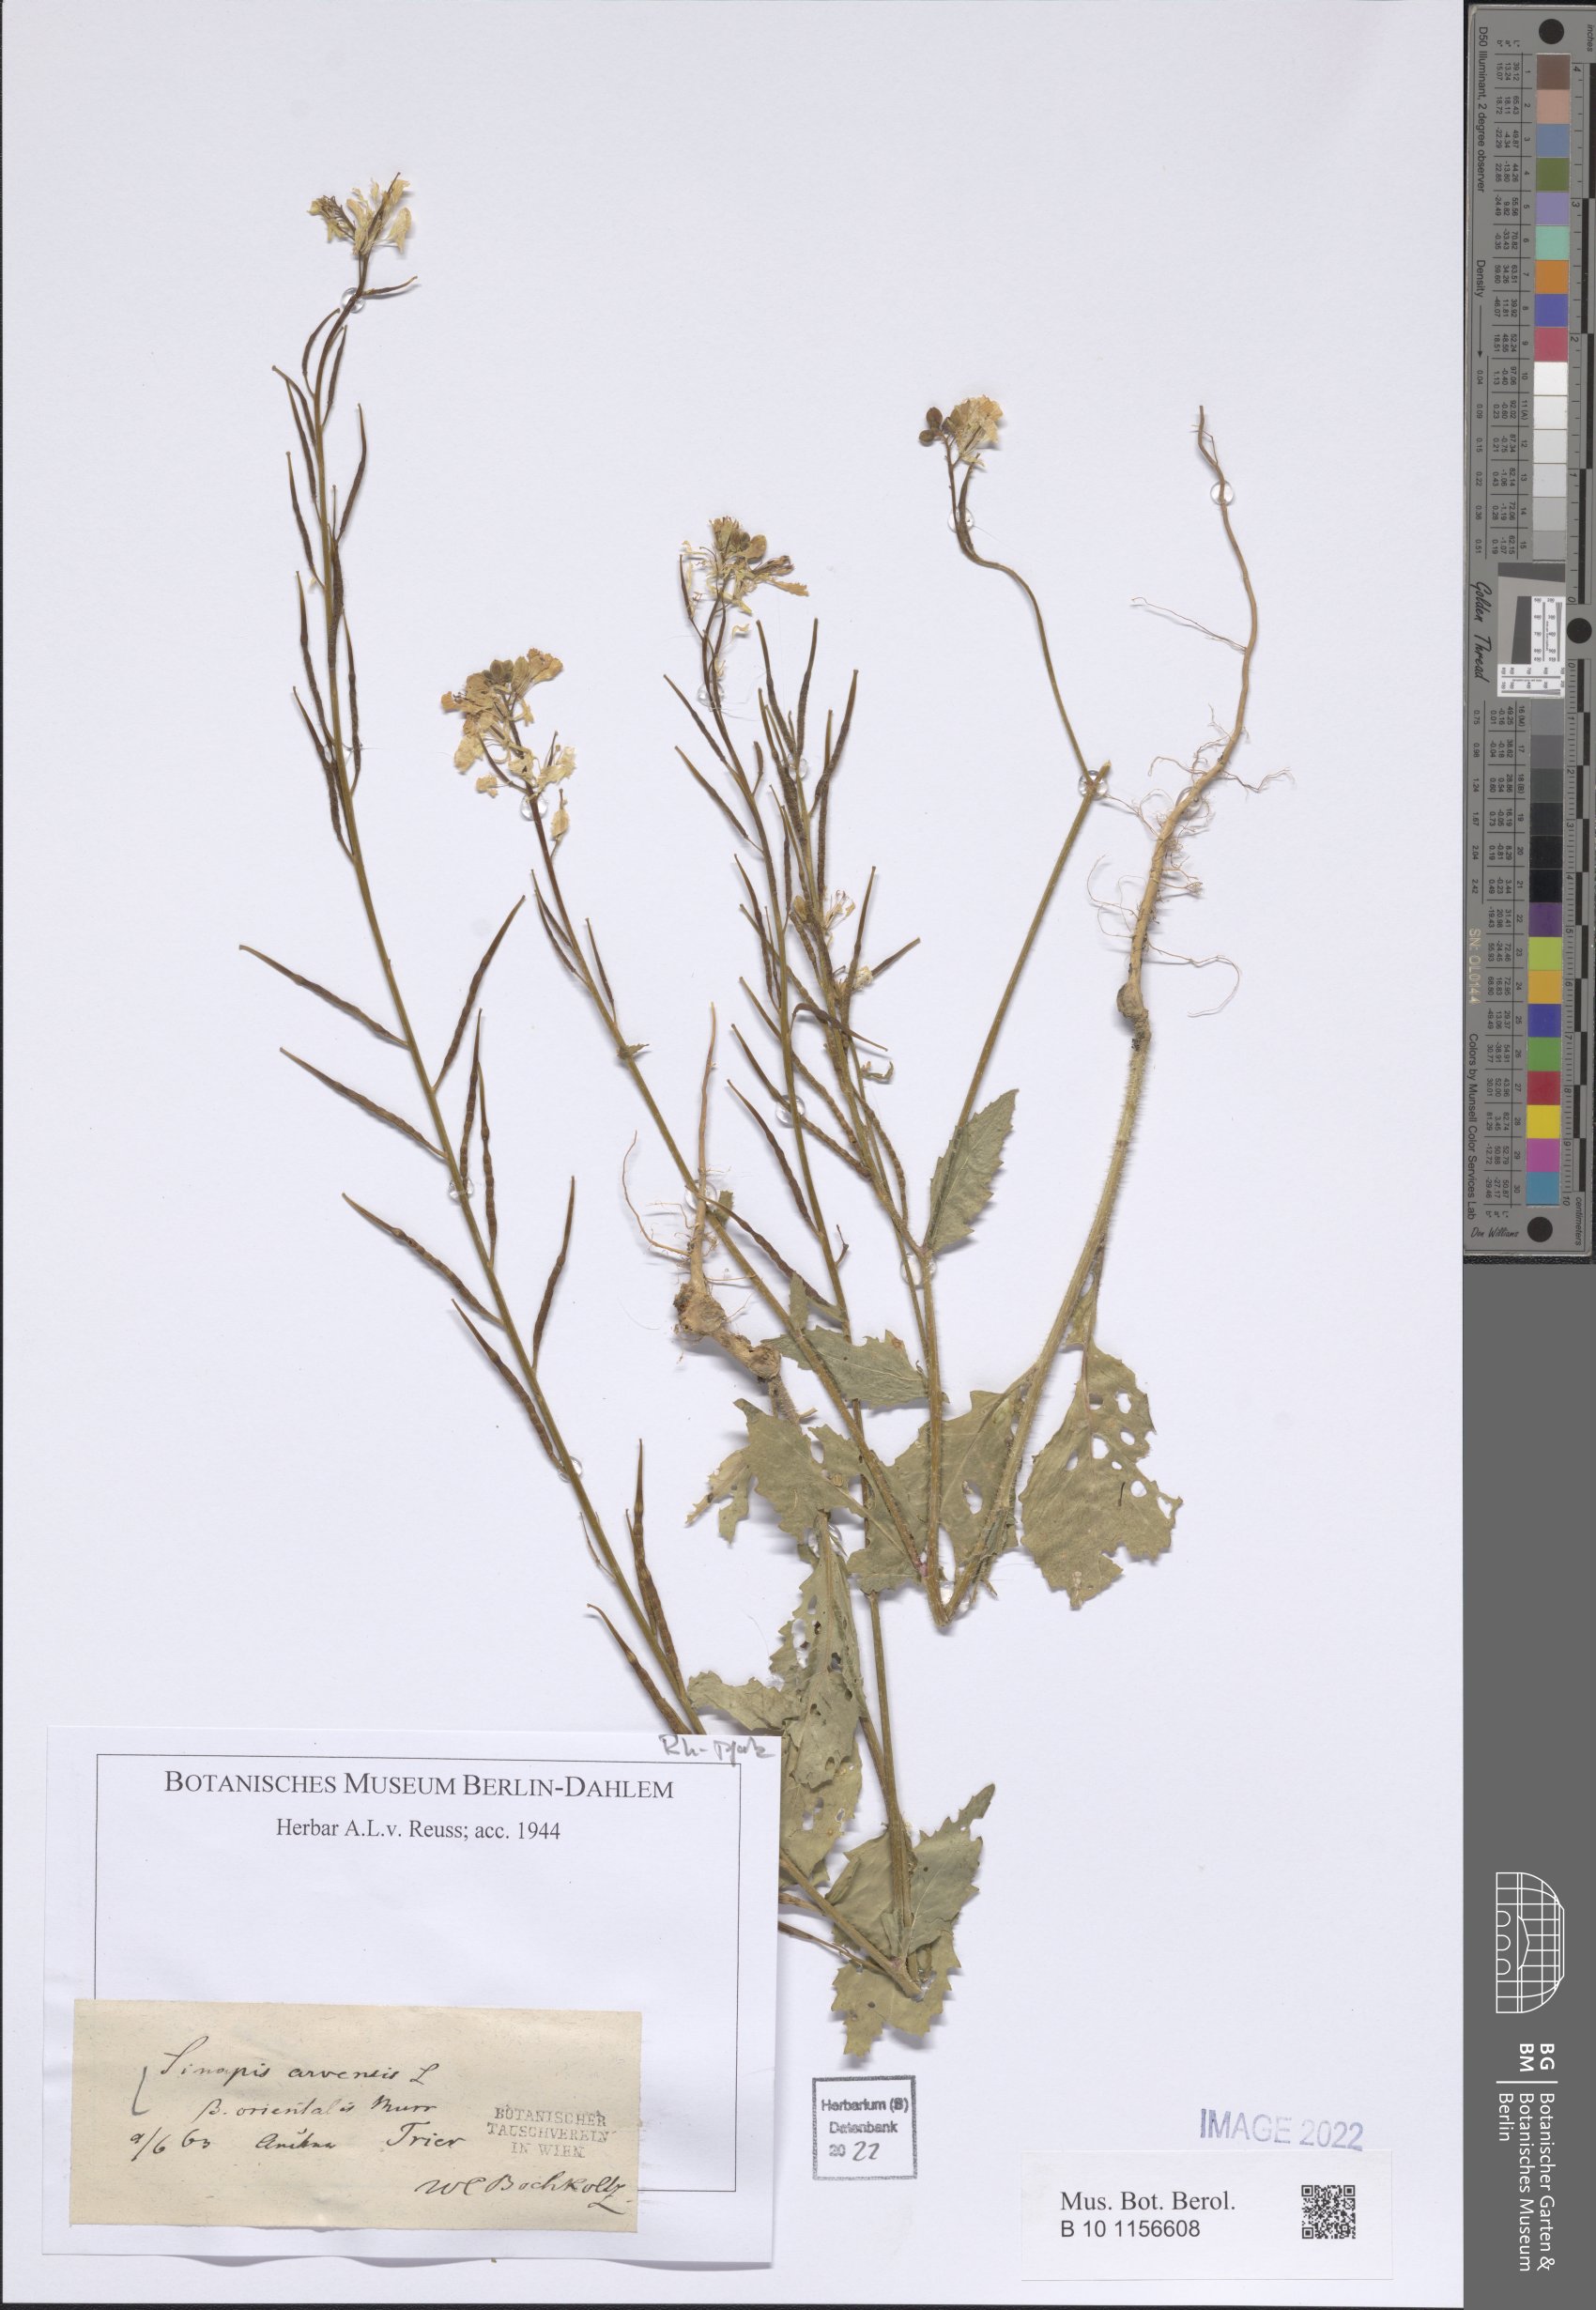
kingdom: Plantae
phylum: Tracheophyta
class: Magnoliopsida
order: Brassicales
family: Brassicaceae
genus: Sinapis
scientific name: Sinapis arvensis
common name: Charlock
